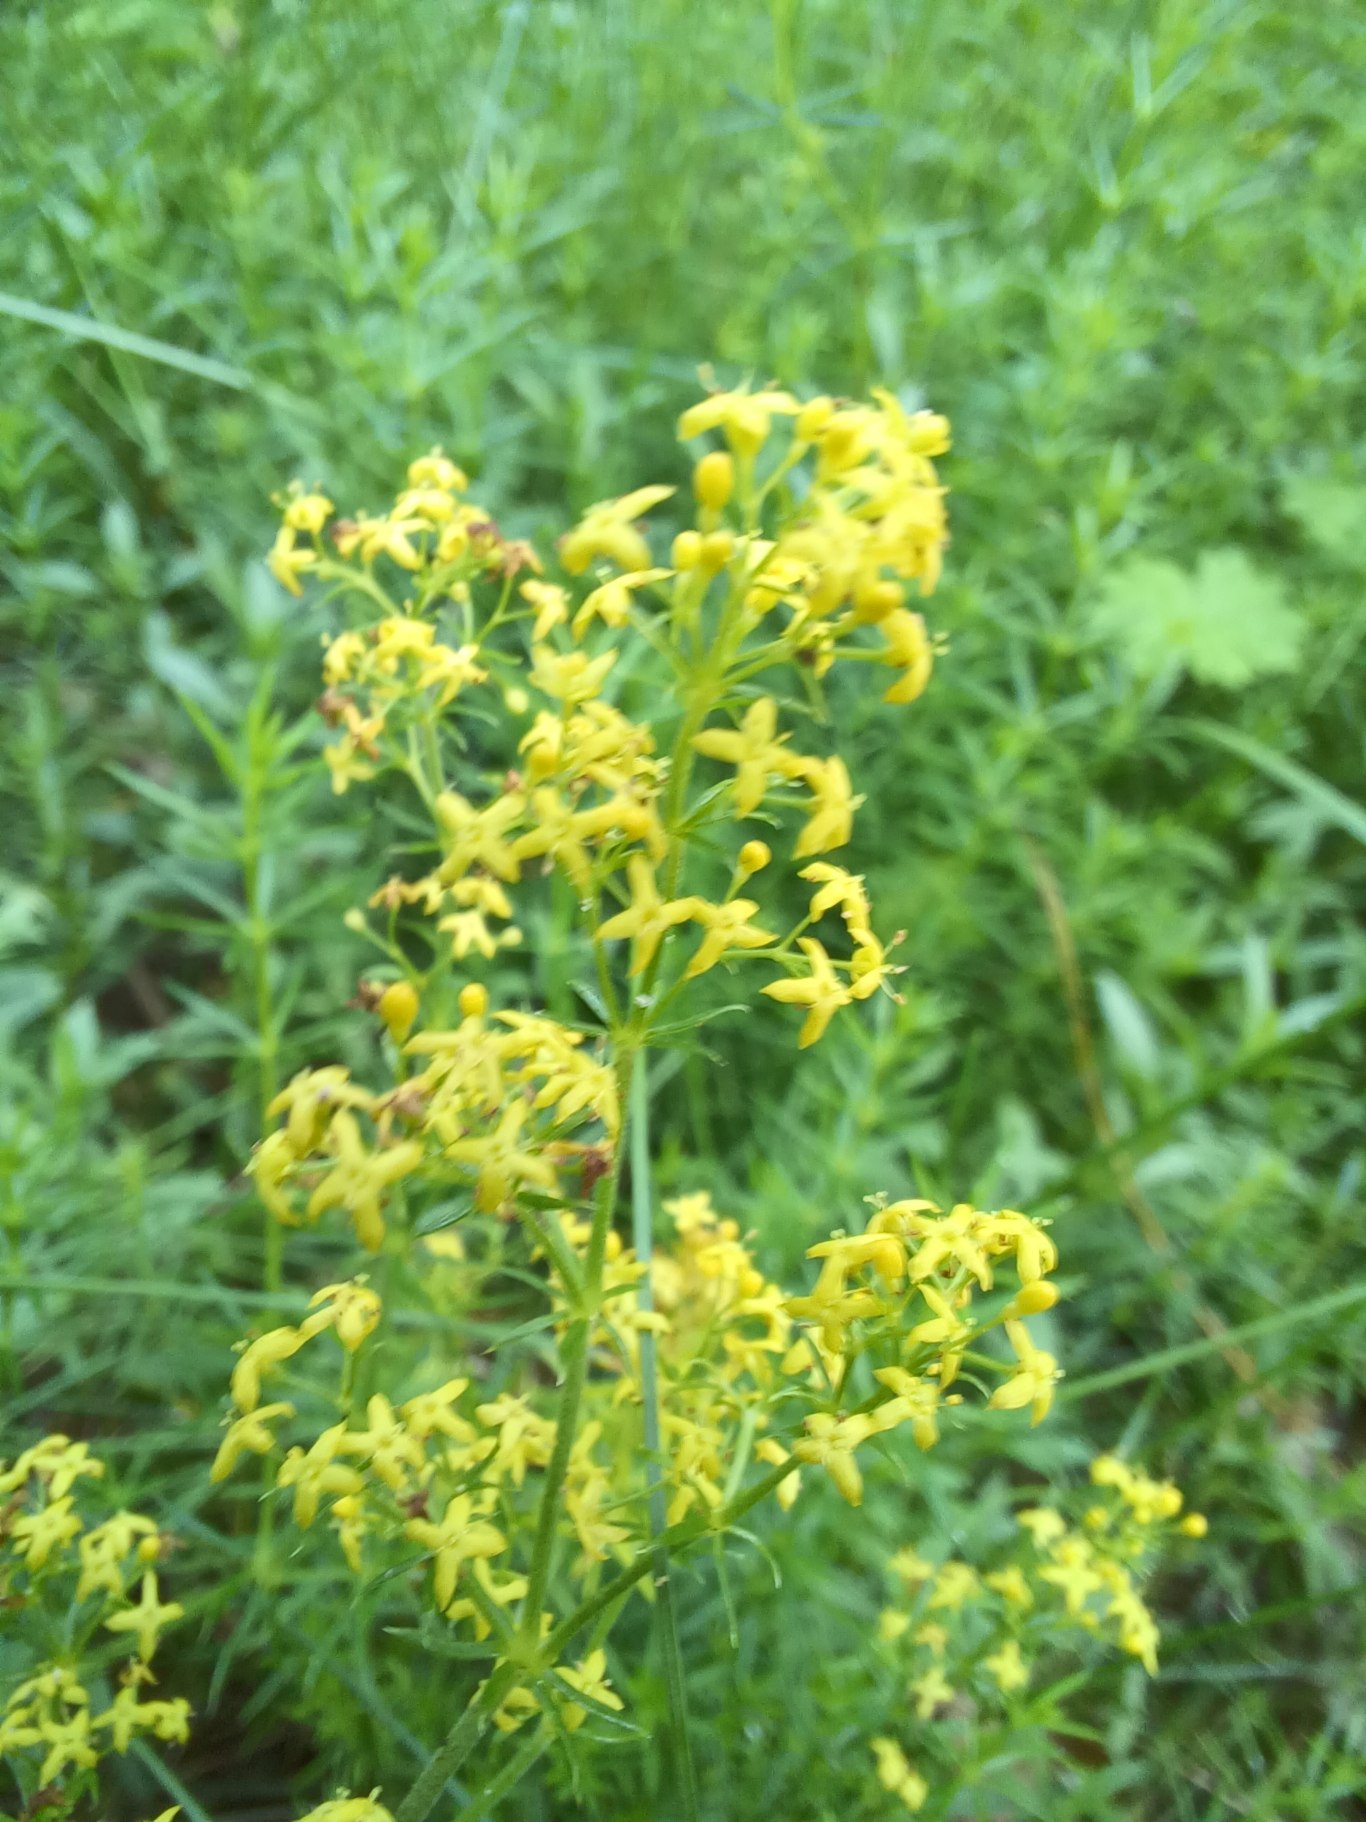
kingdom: Plantae
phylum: Tracheophyta
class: Magnoliopsida
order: Gentianales
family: Rubiaceae
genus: Galium
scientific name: Galium verum
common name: Gul snerre
